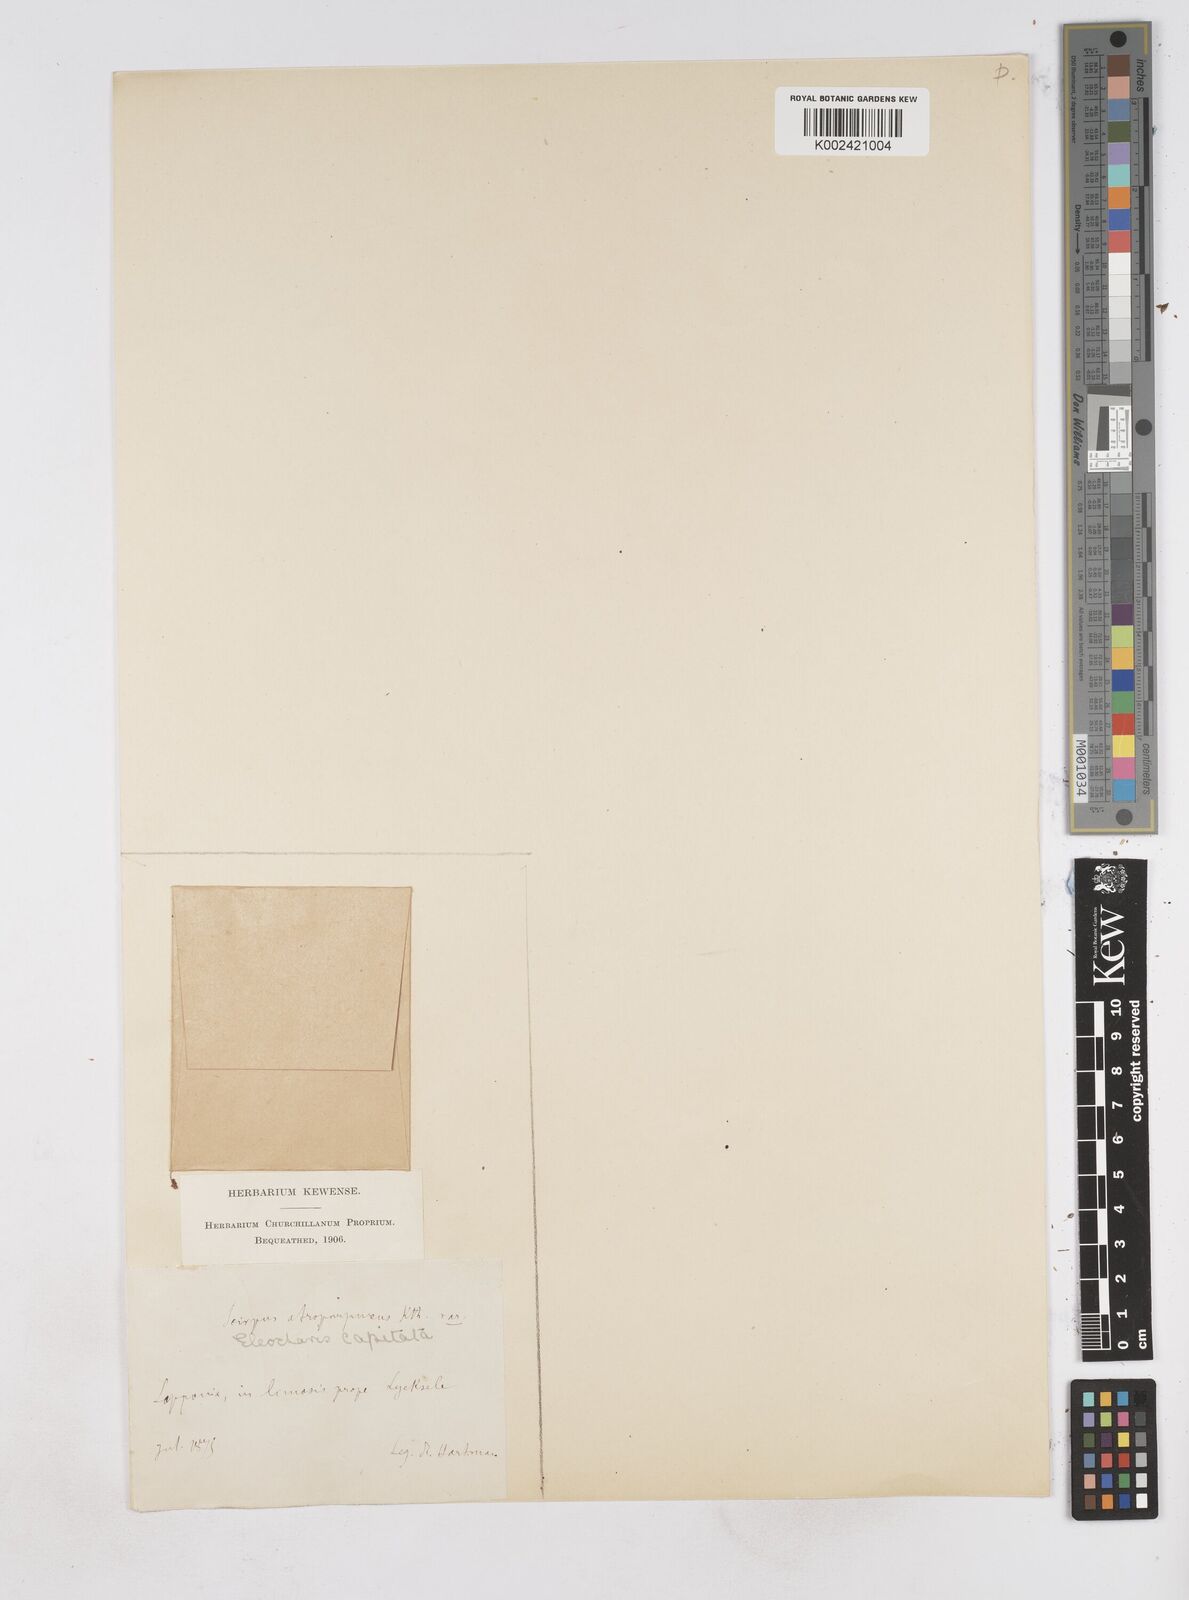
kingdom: Plantae
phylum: Tracheophyta
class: Liliopsida
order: Poales
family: Cyperaceae
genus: Eleocharis
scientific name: Eleocharis atropurpurea
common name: Purple spikerush
